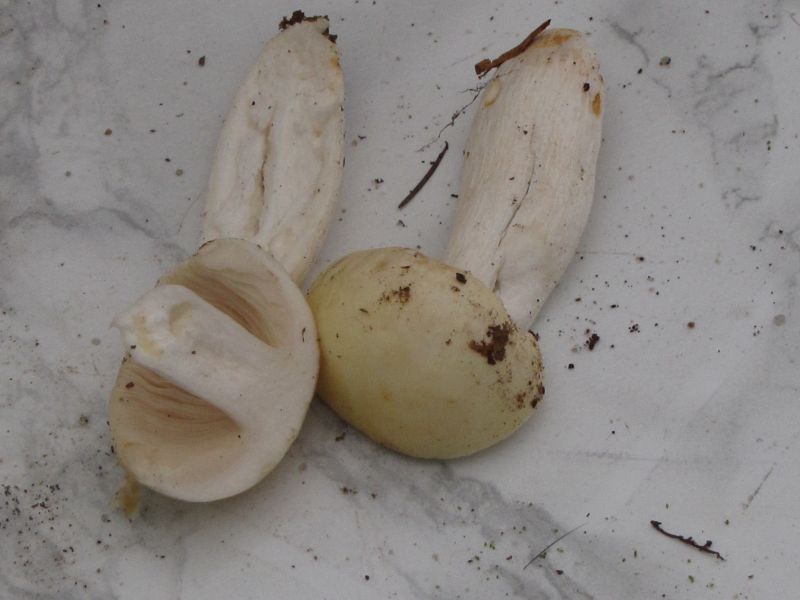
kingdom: Fungi
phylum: Basidiomycota
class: Agaricomycetes
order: Russulales
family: Russulaceae
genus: Russula
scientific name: Russula farinipes
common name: gul kam-skørhat
